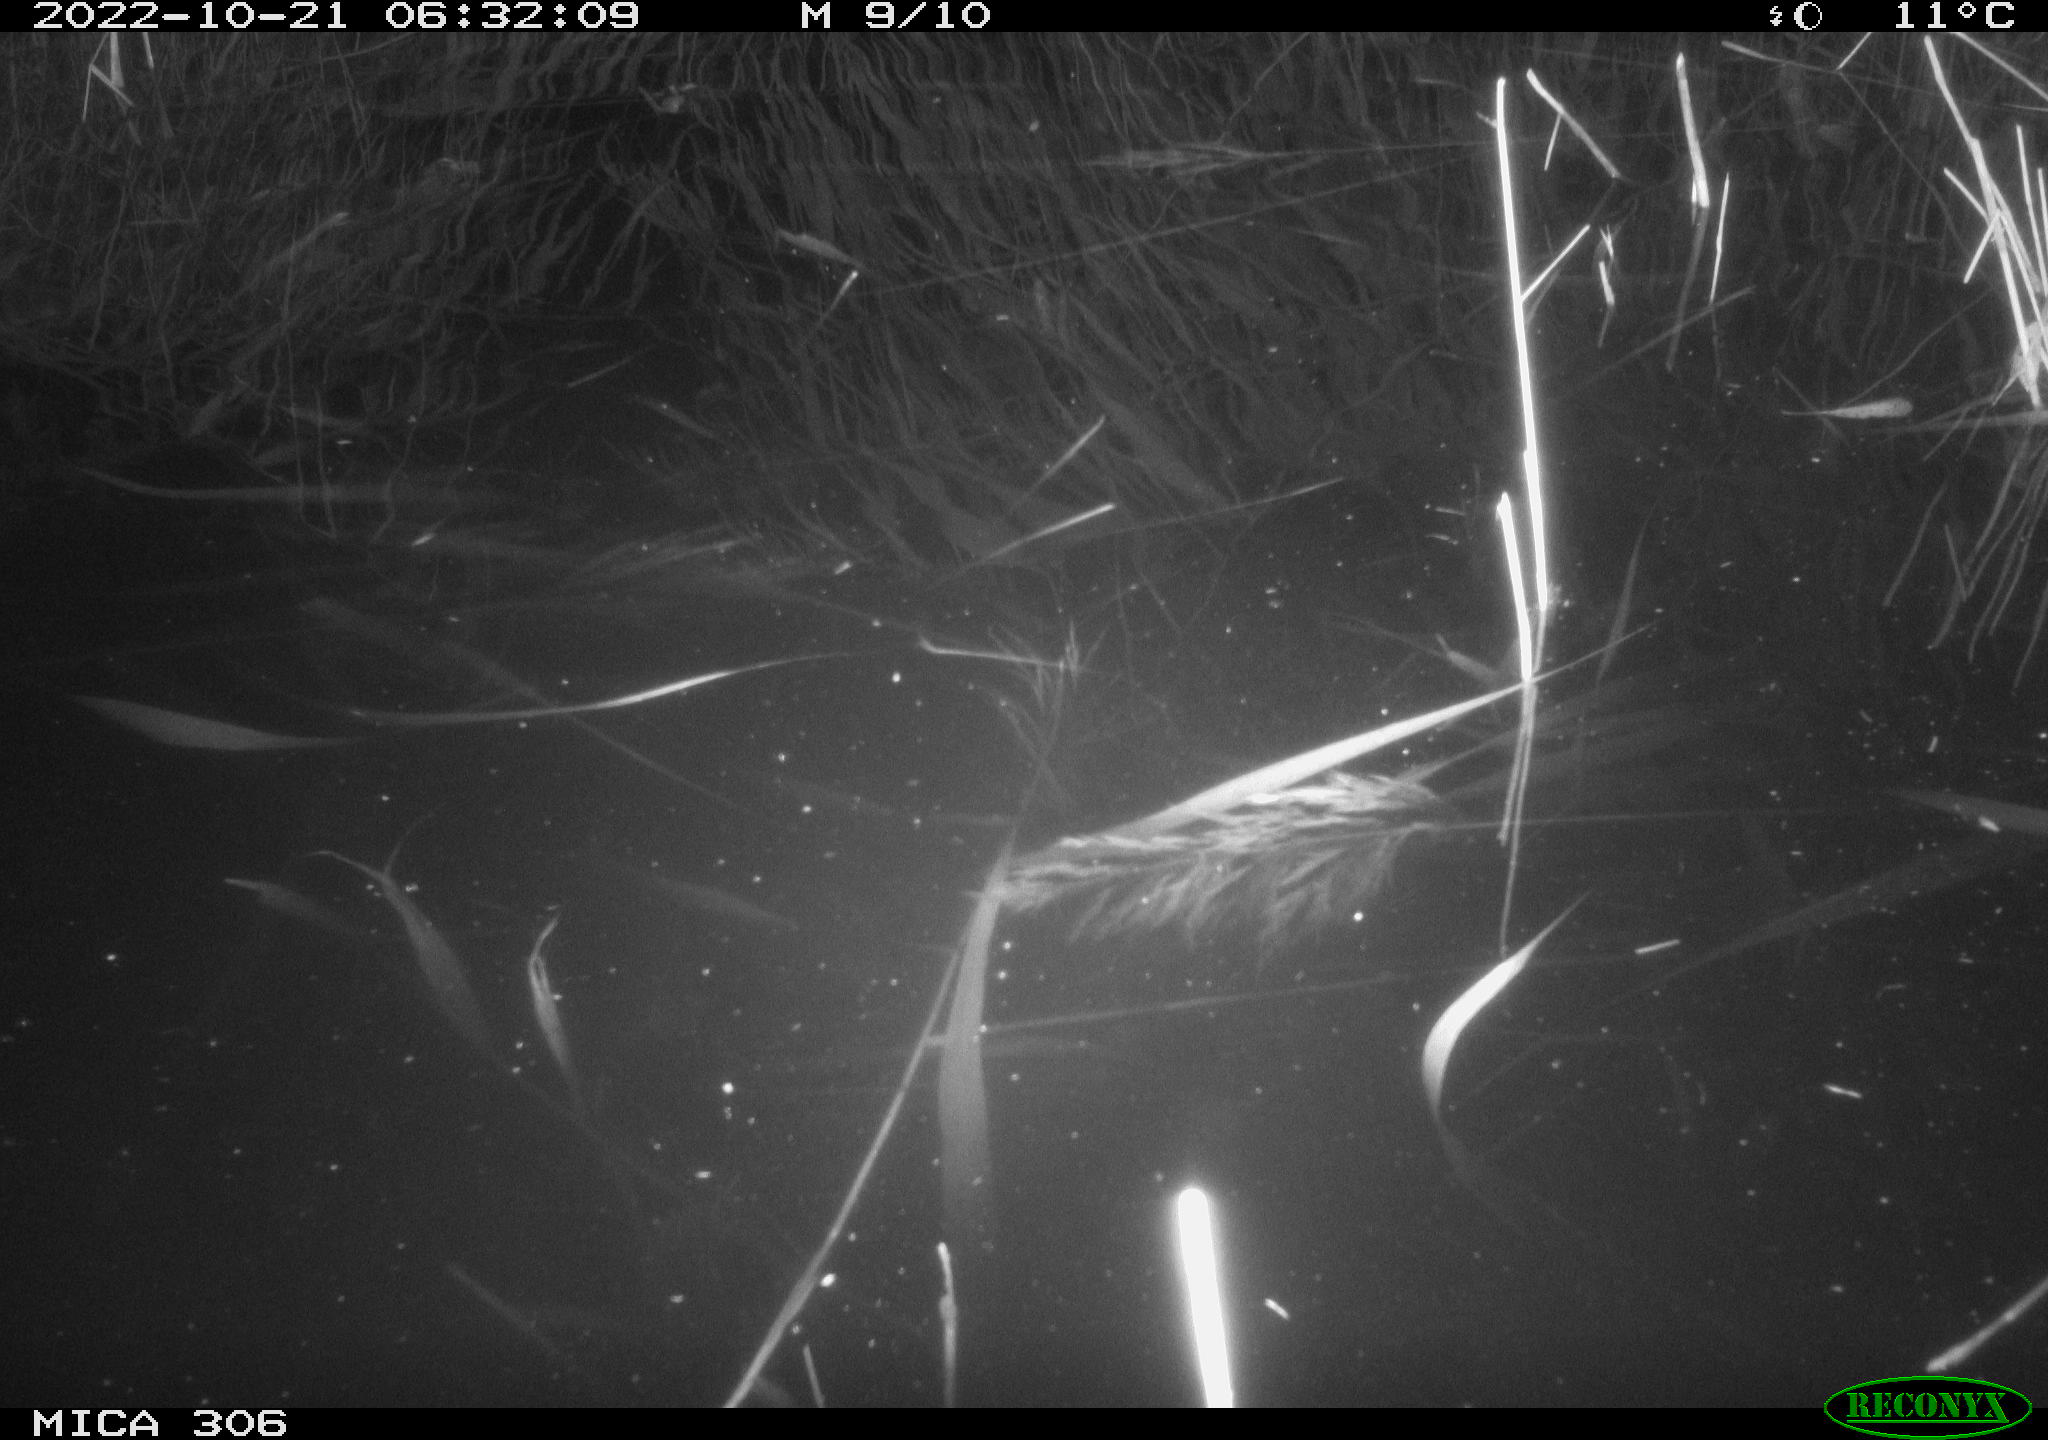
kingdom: Animalia
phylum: Chordata
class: Mammalia
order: Rodentia
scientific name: Rodentia
